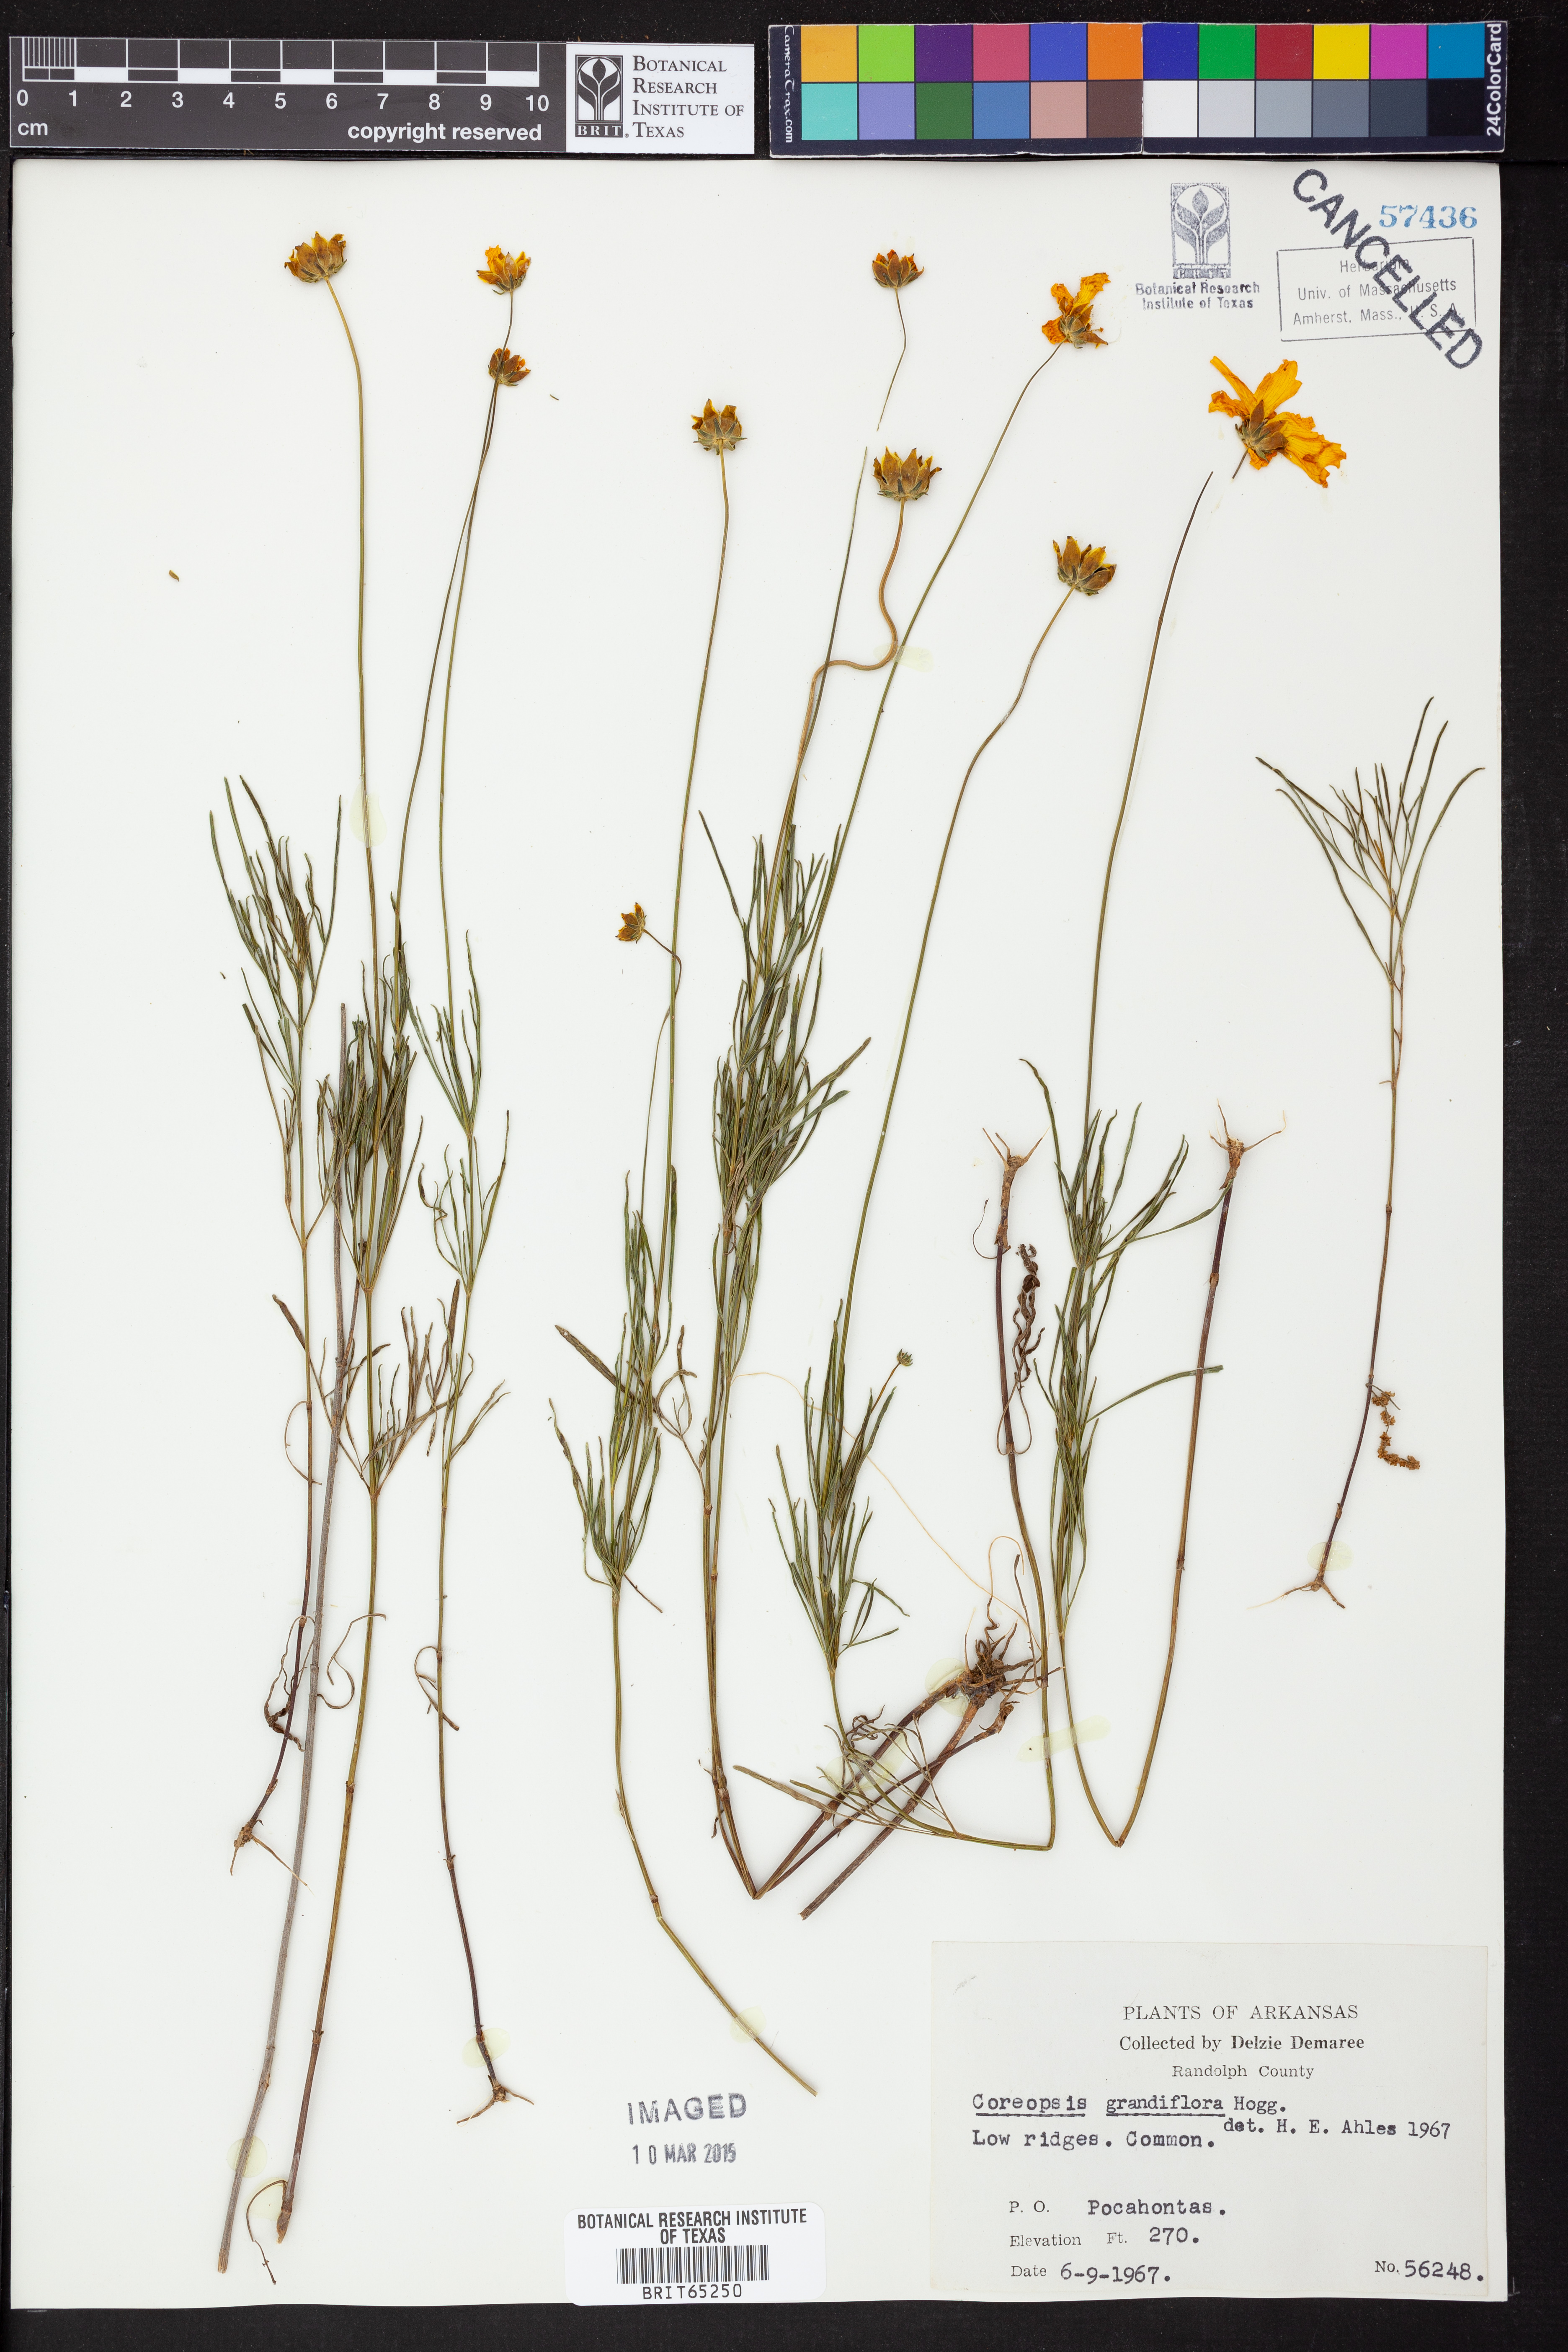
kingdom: Plantae
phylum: Tracheophyta
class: Magnoliopsida
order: Asterales
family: Asteraceae
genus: Coreopsis
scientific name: Coreopsis grandiflora
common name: Large-flowered tickseed
